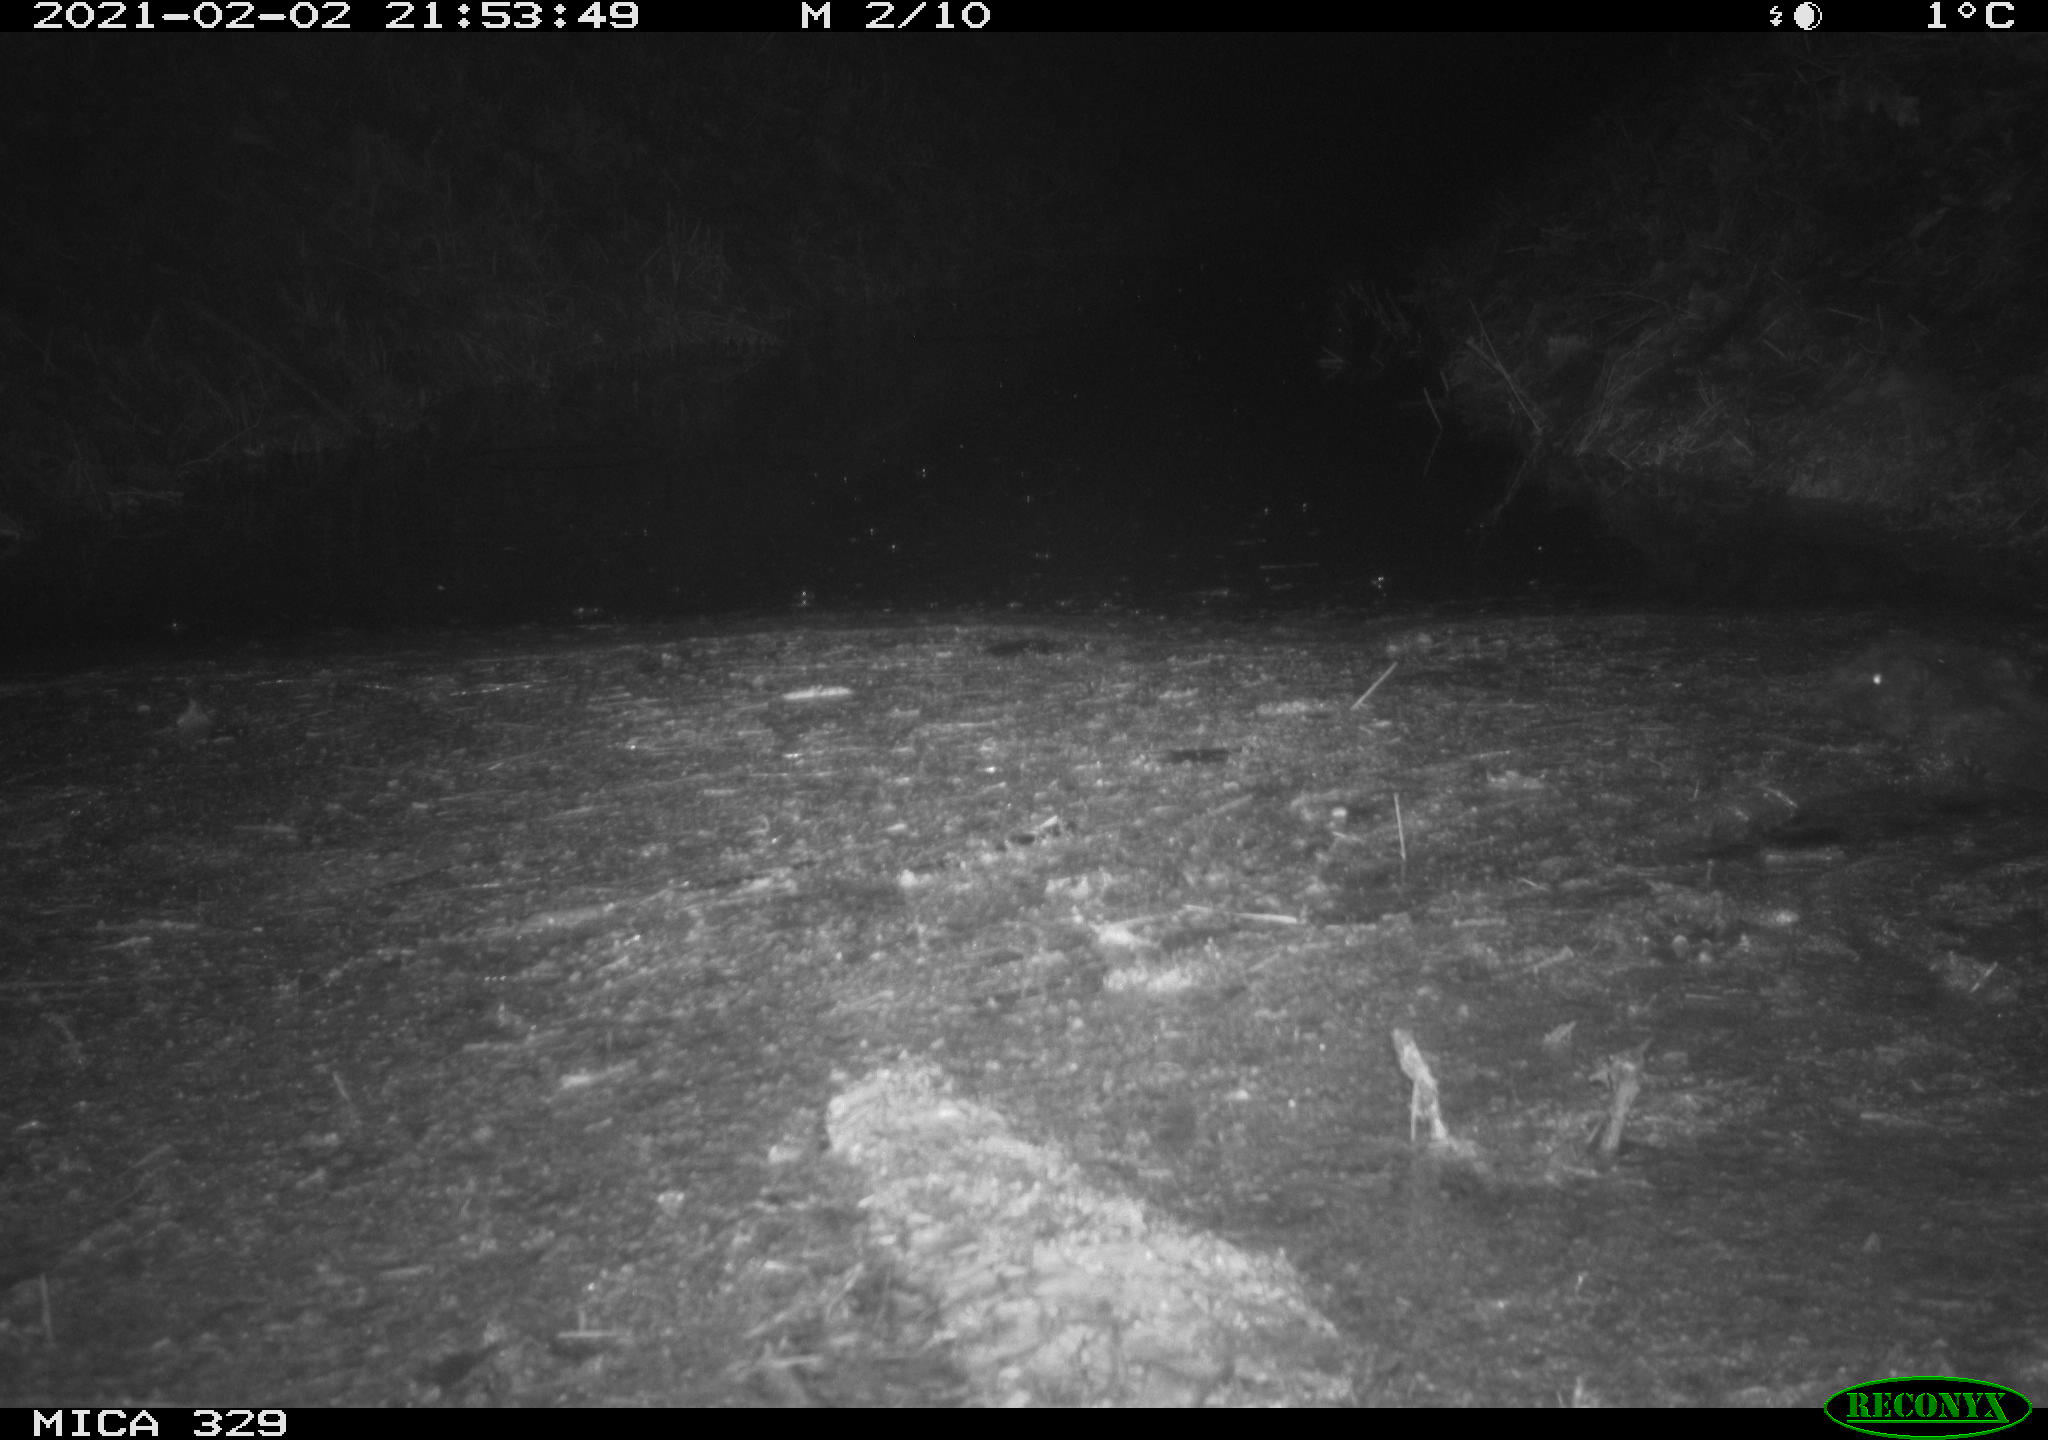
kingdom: Animalia
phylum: Chordata
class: Mammalia
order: Rodentia
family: Myocastoridae
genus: Myocastor
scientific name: Myocastor coypus
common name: Coypu
